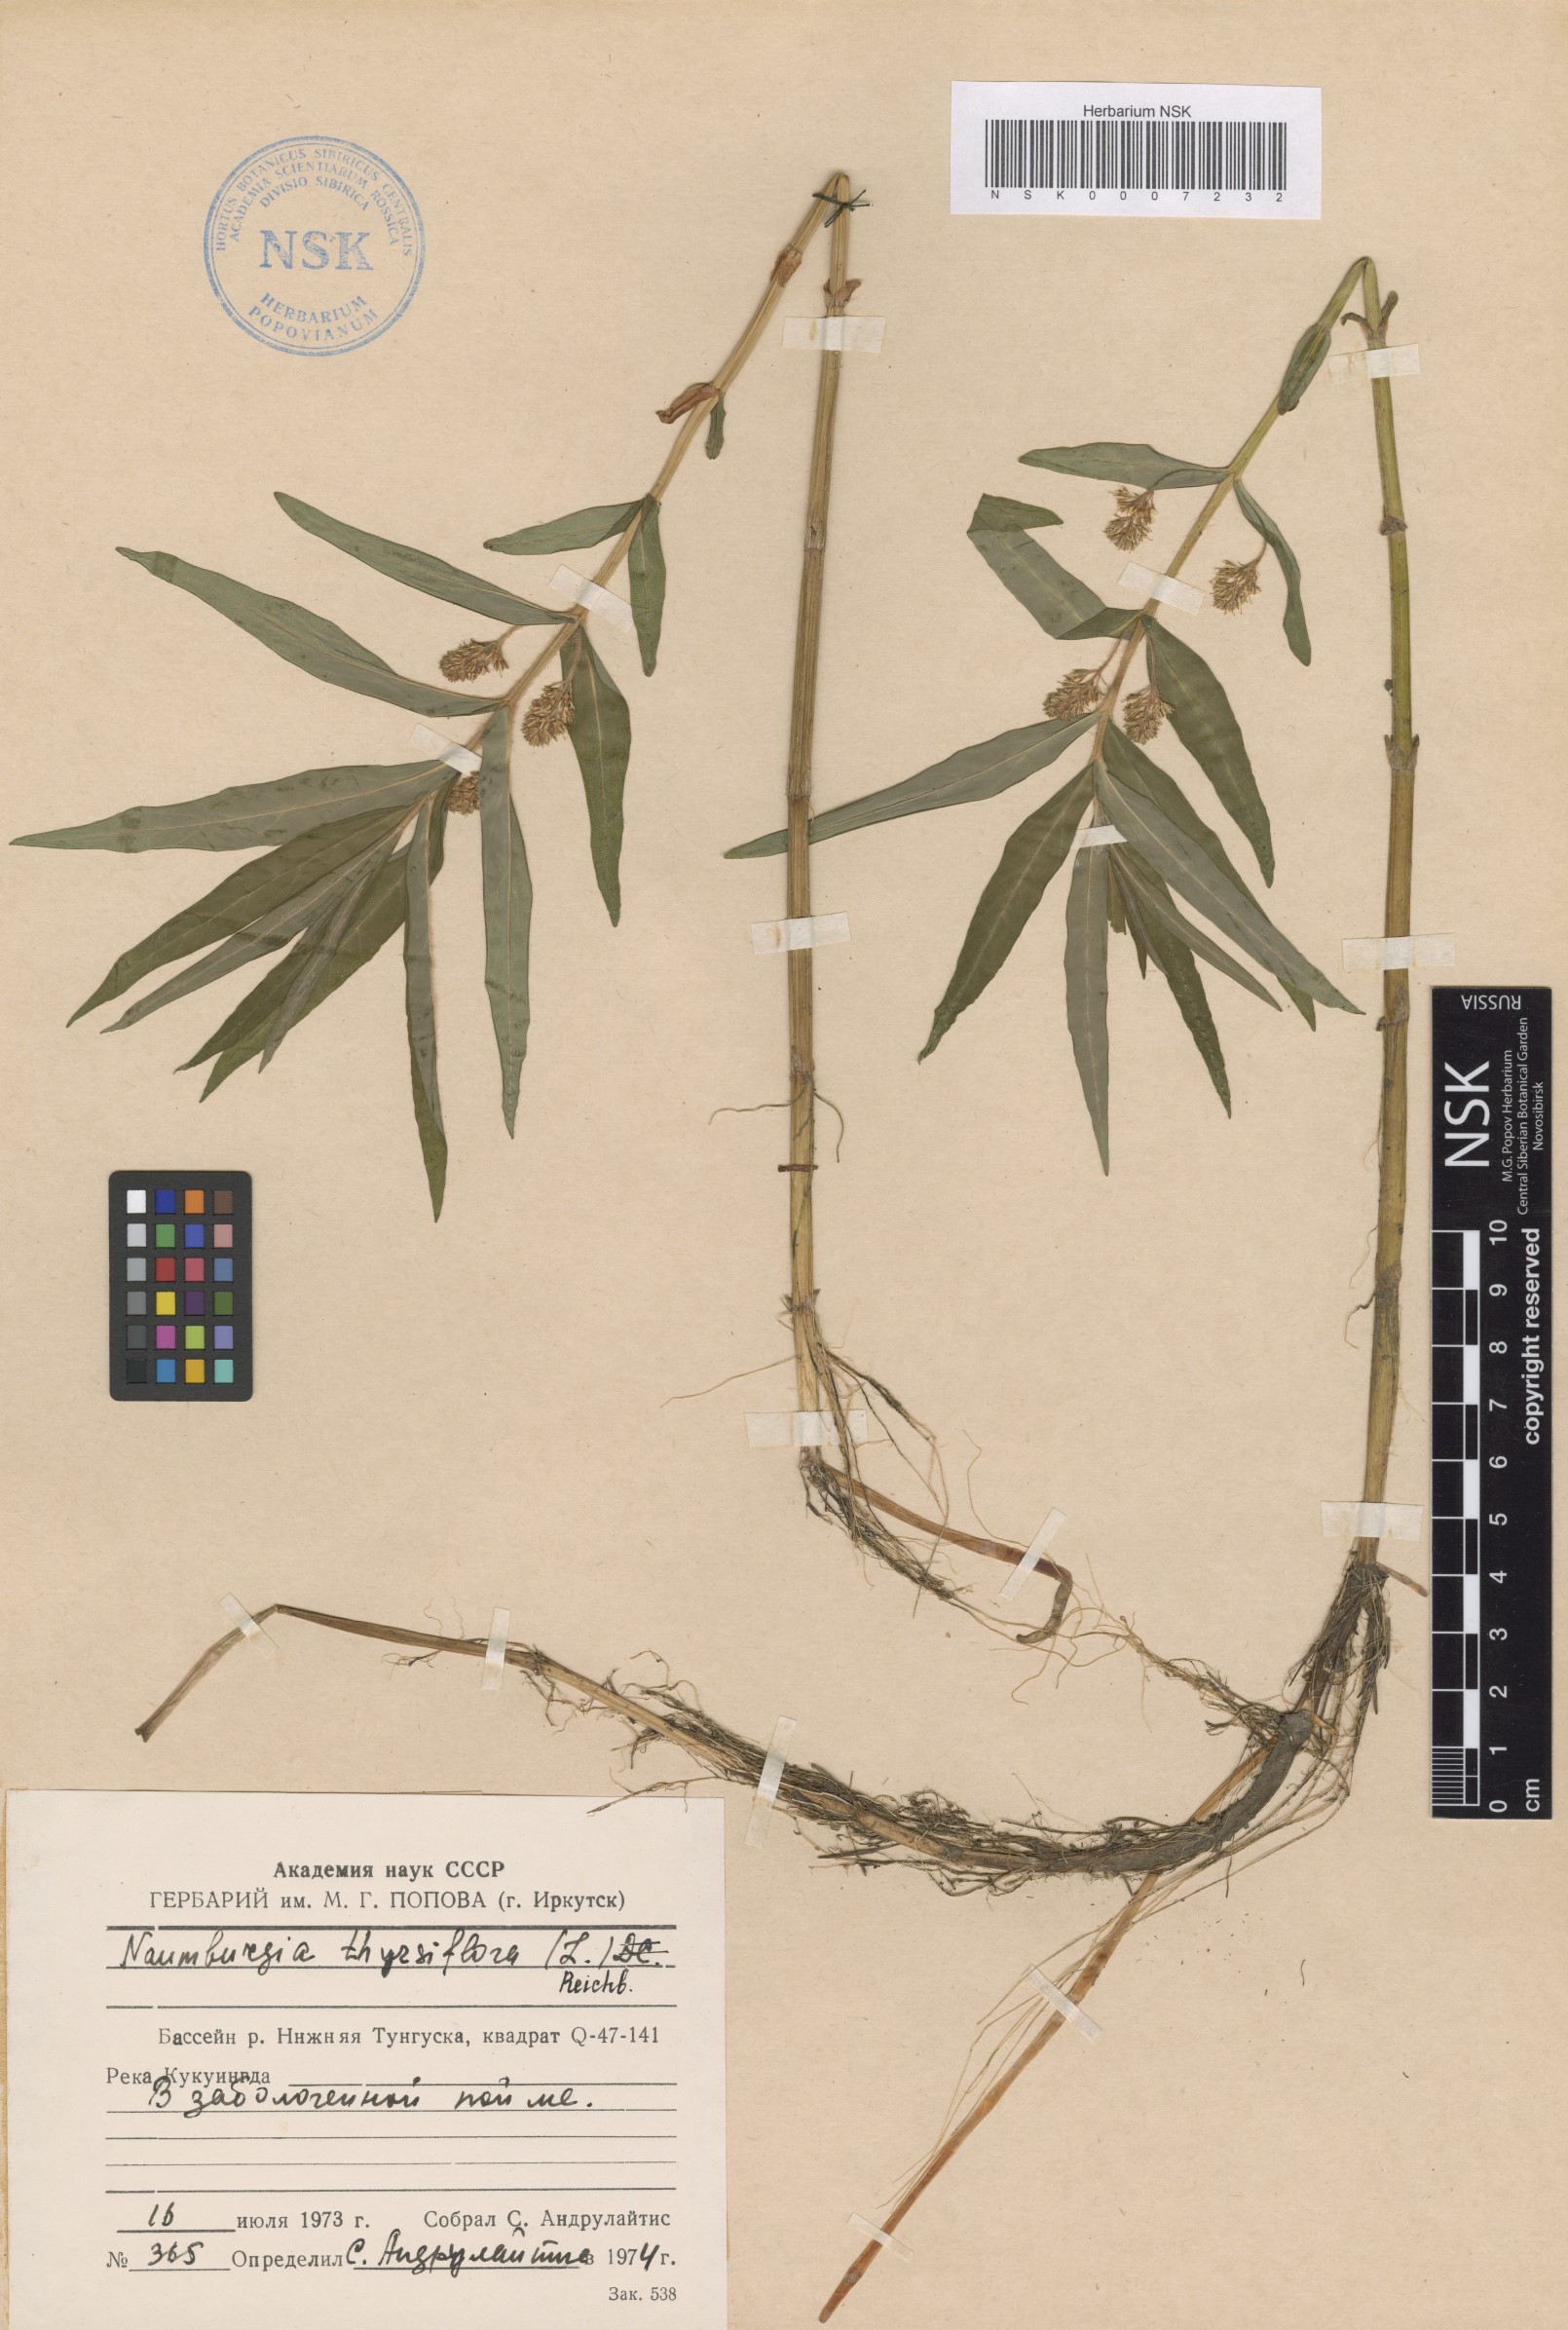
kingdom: Plantae
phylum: Tracheophyta
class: Magnoliopsida
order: Ericales
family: Primulaceae
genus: Lysimachia
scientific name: Lysimachia thyrsiflora
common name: Tufted loosestrife
